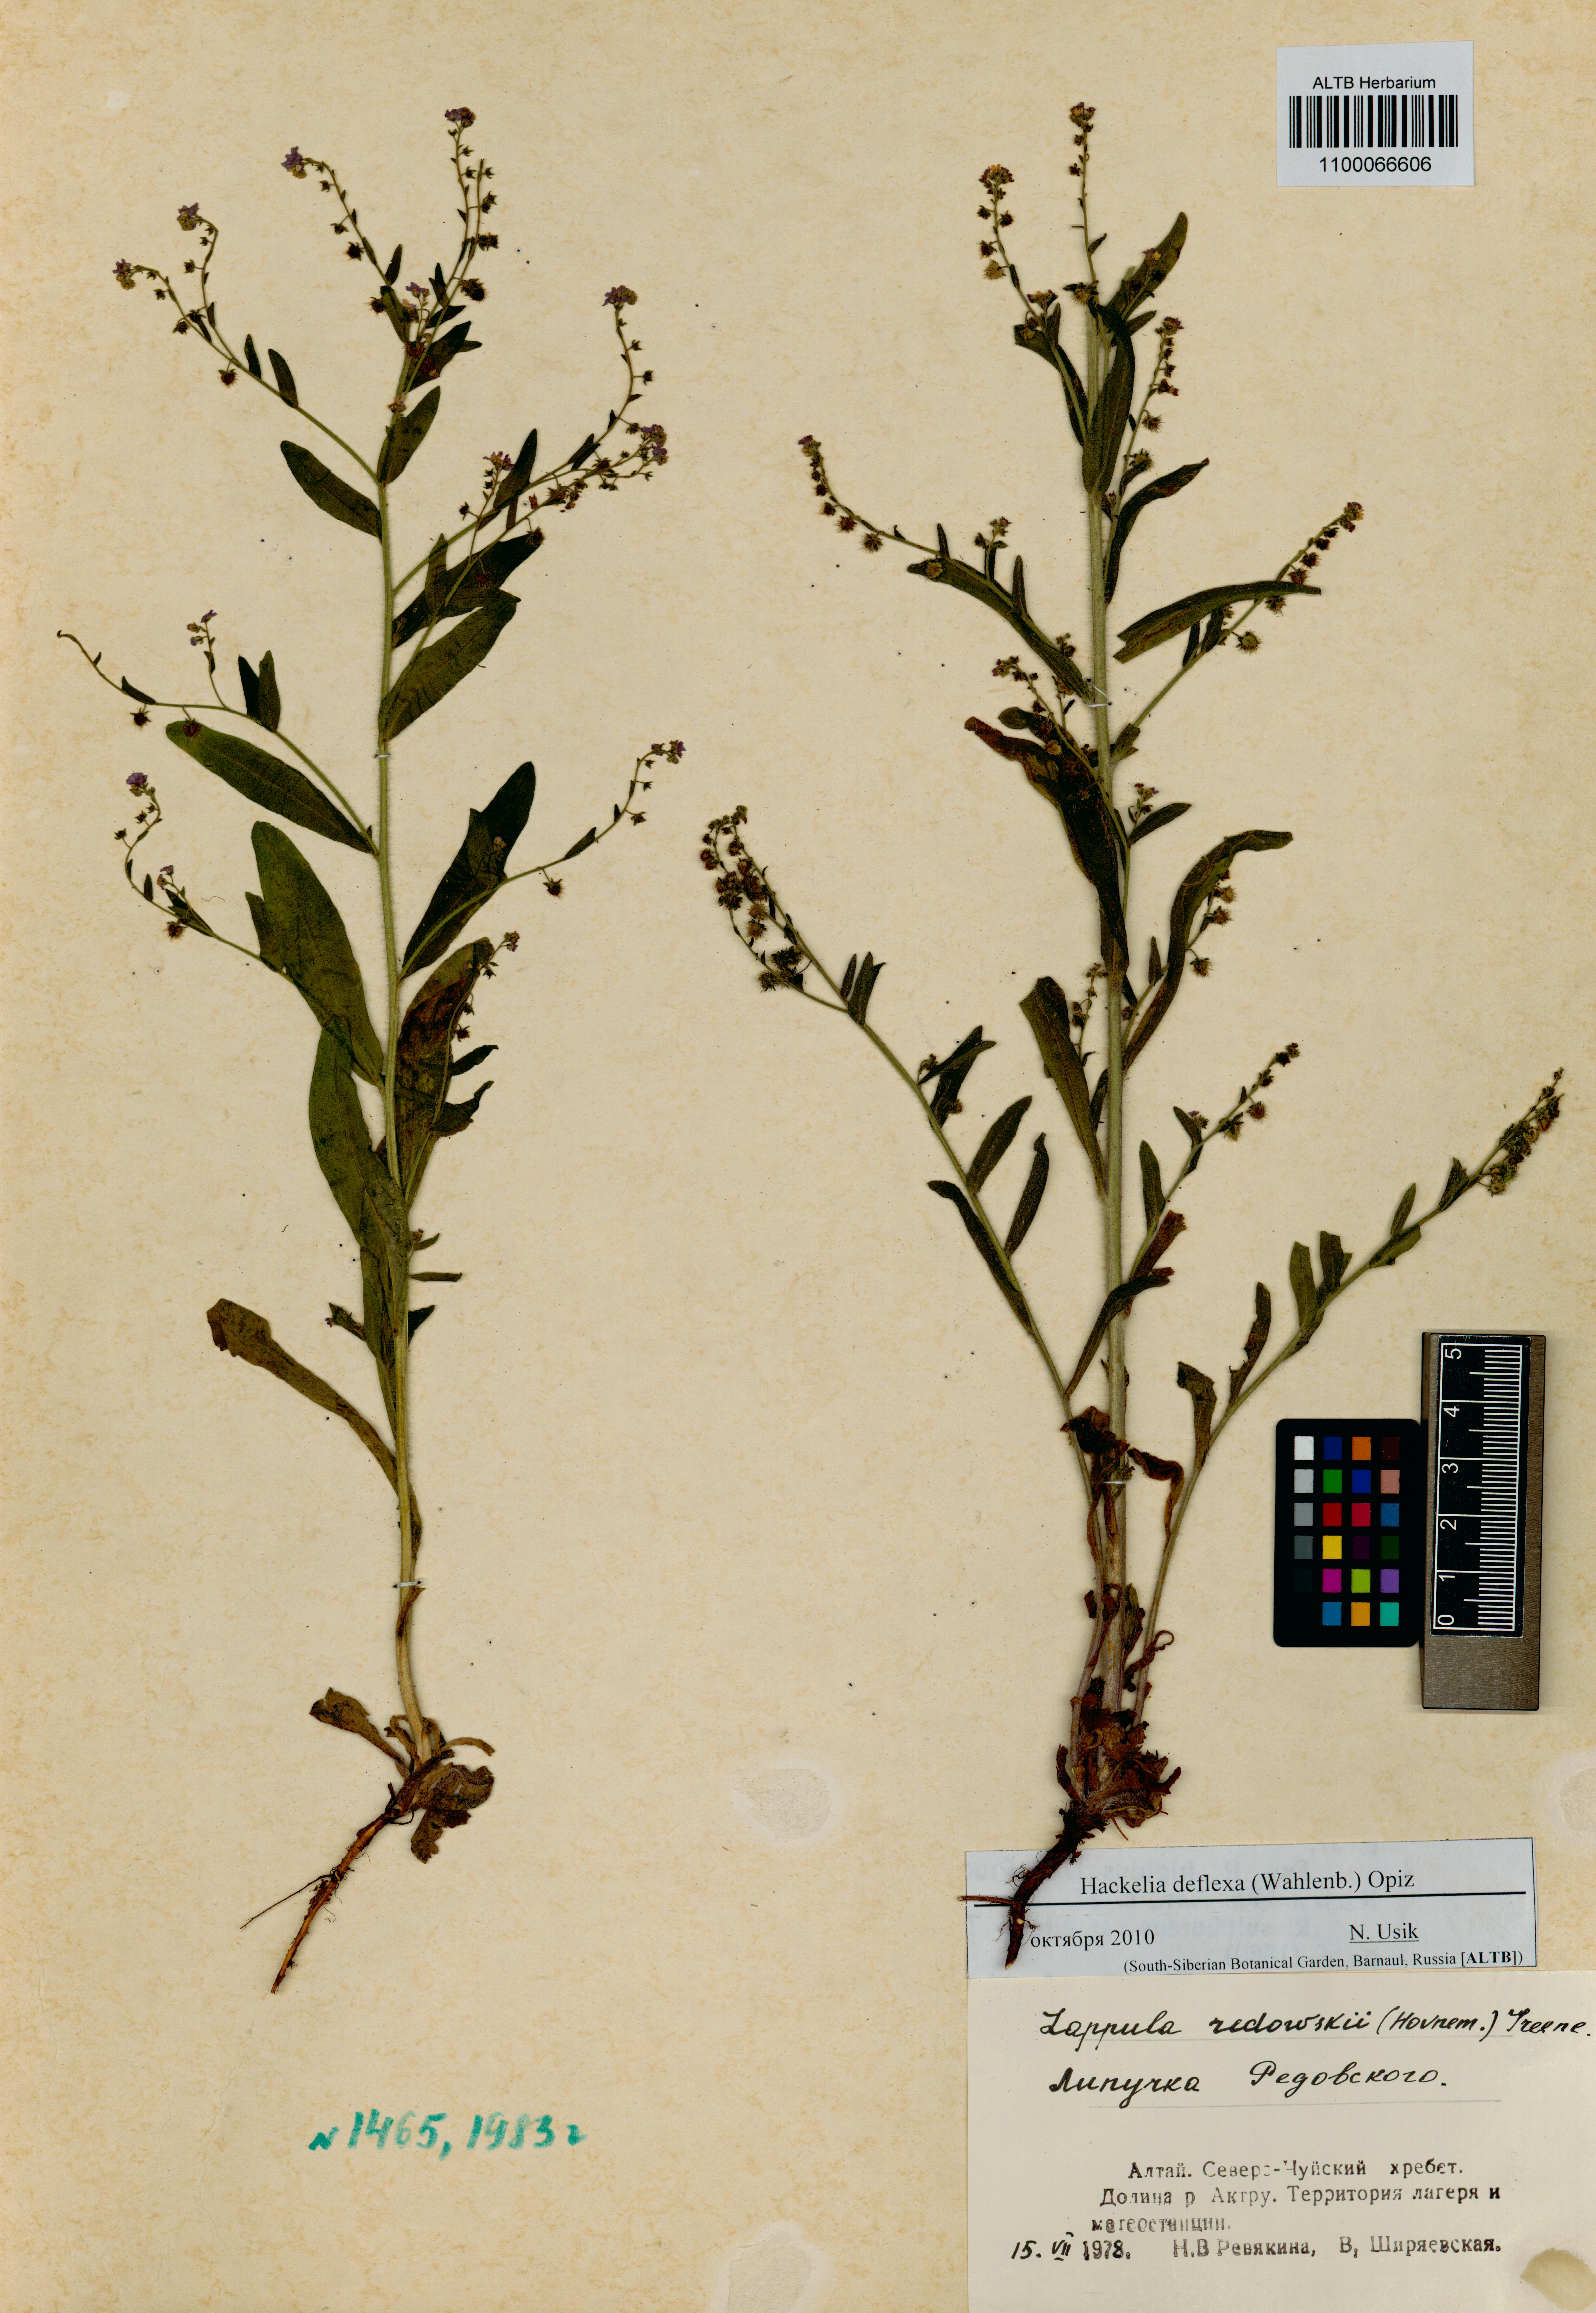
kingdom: Plantae
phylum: Tracheophyta
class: Magnoliopsida
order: Boraginales
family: Boraginaceae
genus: Hackelia
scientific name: Hackelia deflexa
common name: Nodding stickseed
